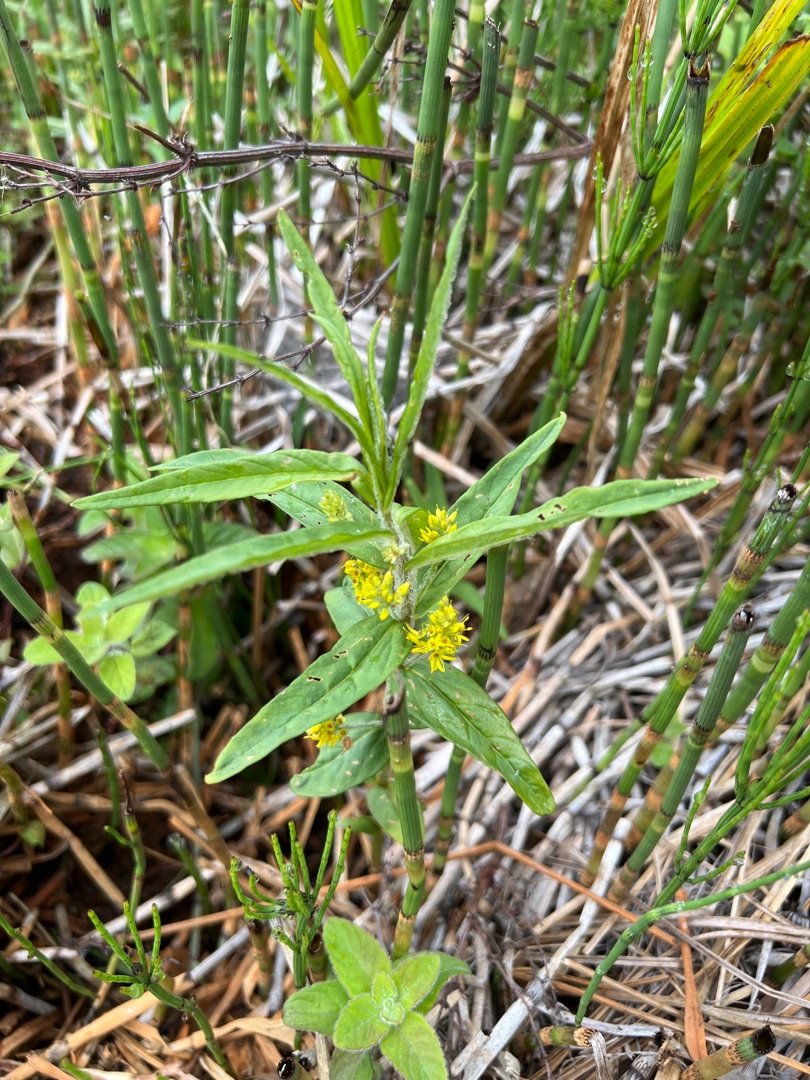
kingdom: Plantae
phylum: Tracheophyta
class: Magnoliopsida
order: Ericales
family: Primulaceae
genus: Lysimachia
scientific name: Lysimachia thyrsiflora
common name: Dusk-fredløs
